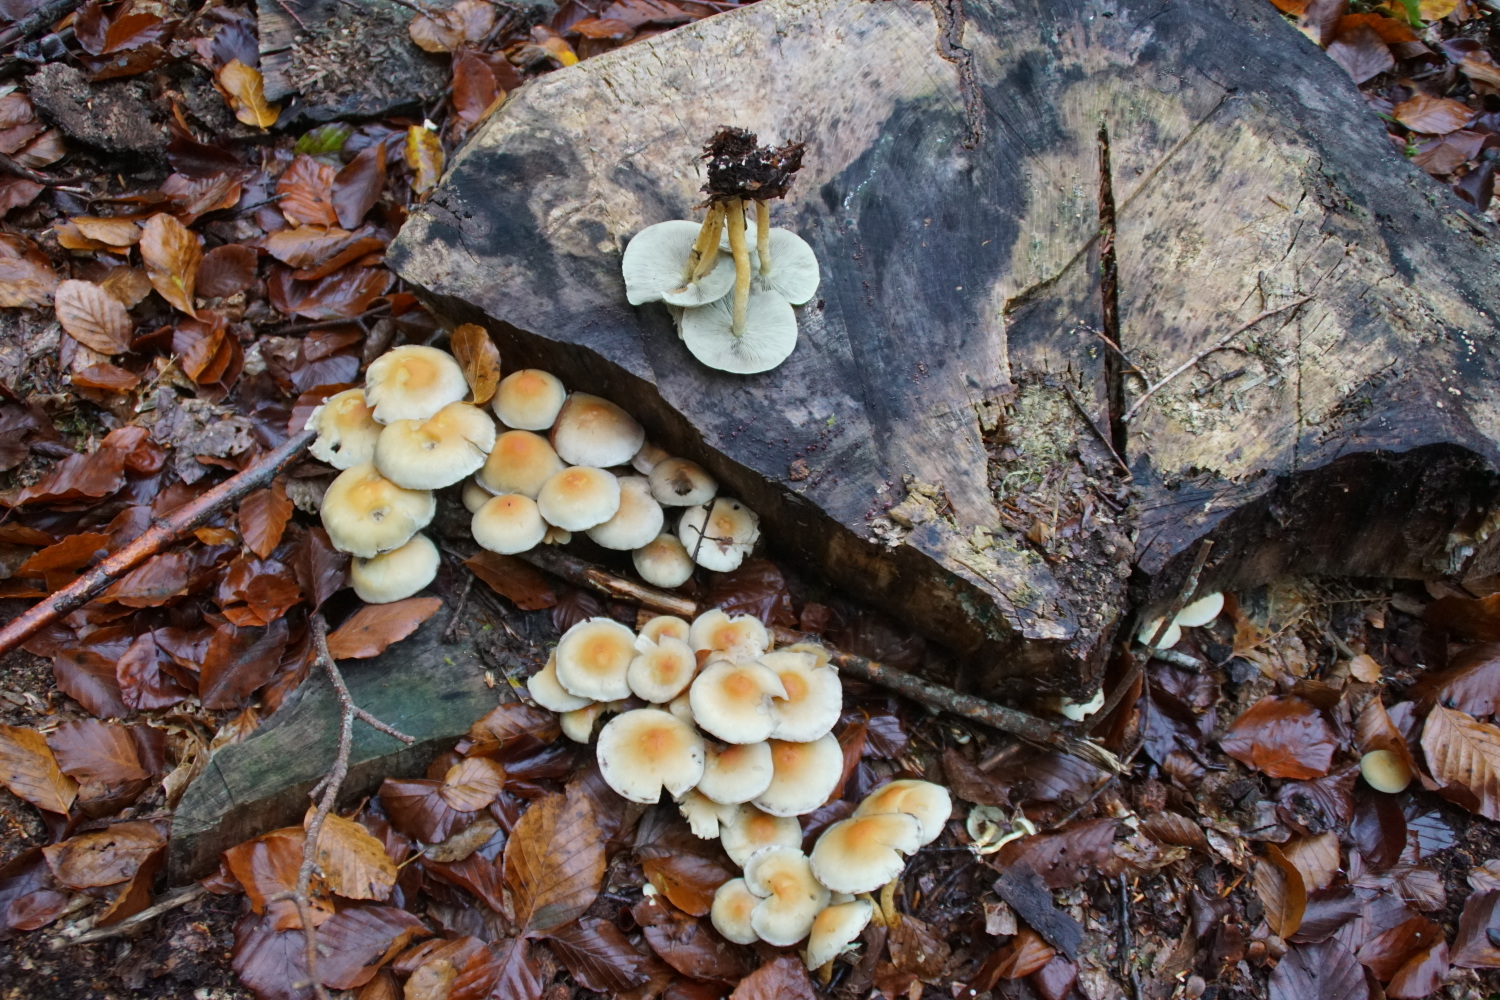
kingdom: Fungi
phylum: Basidiomycota
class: Agaricomycetes
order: Agaricales
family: Strophariaceae
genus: Hypholoma
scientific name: Hypholoma fasciculare
